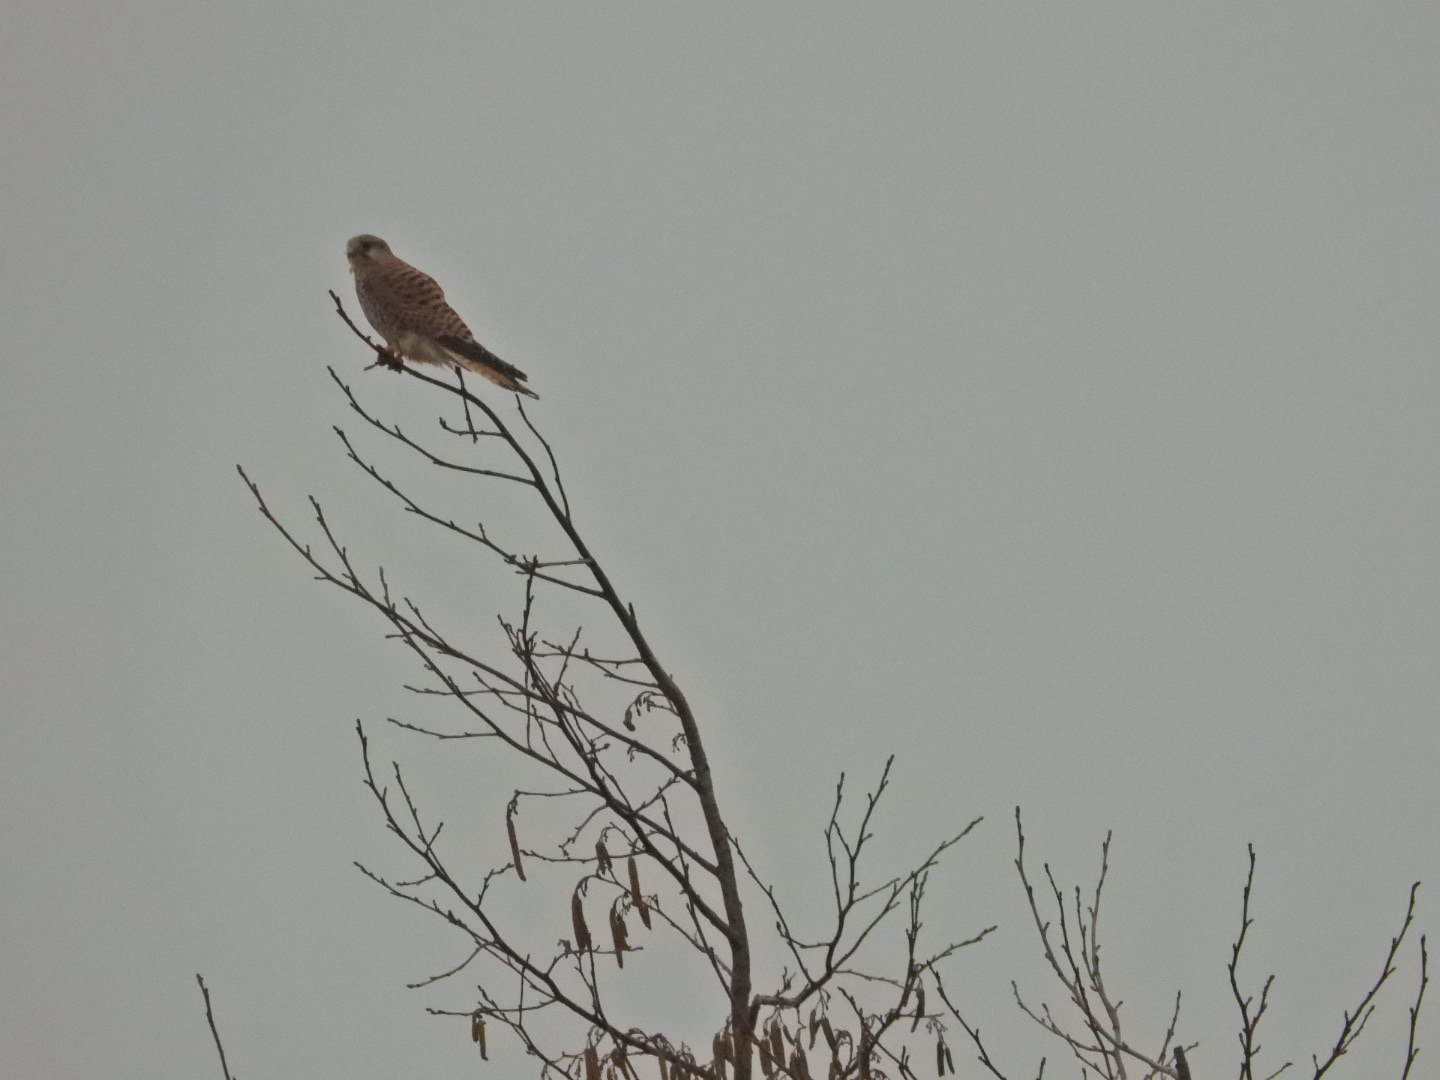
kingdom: Animalia
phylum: Chordata
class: Aves
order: Falconiformes
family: Falconidae
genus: Falco
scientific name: Falco tinnunculus
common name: Tårnfalk
